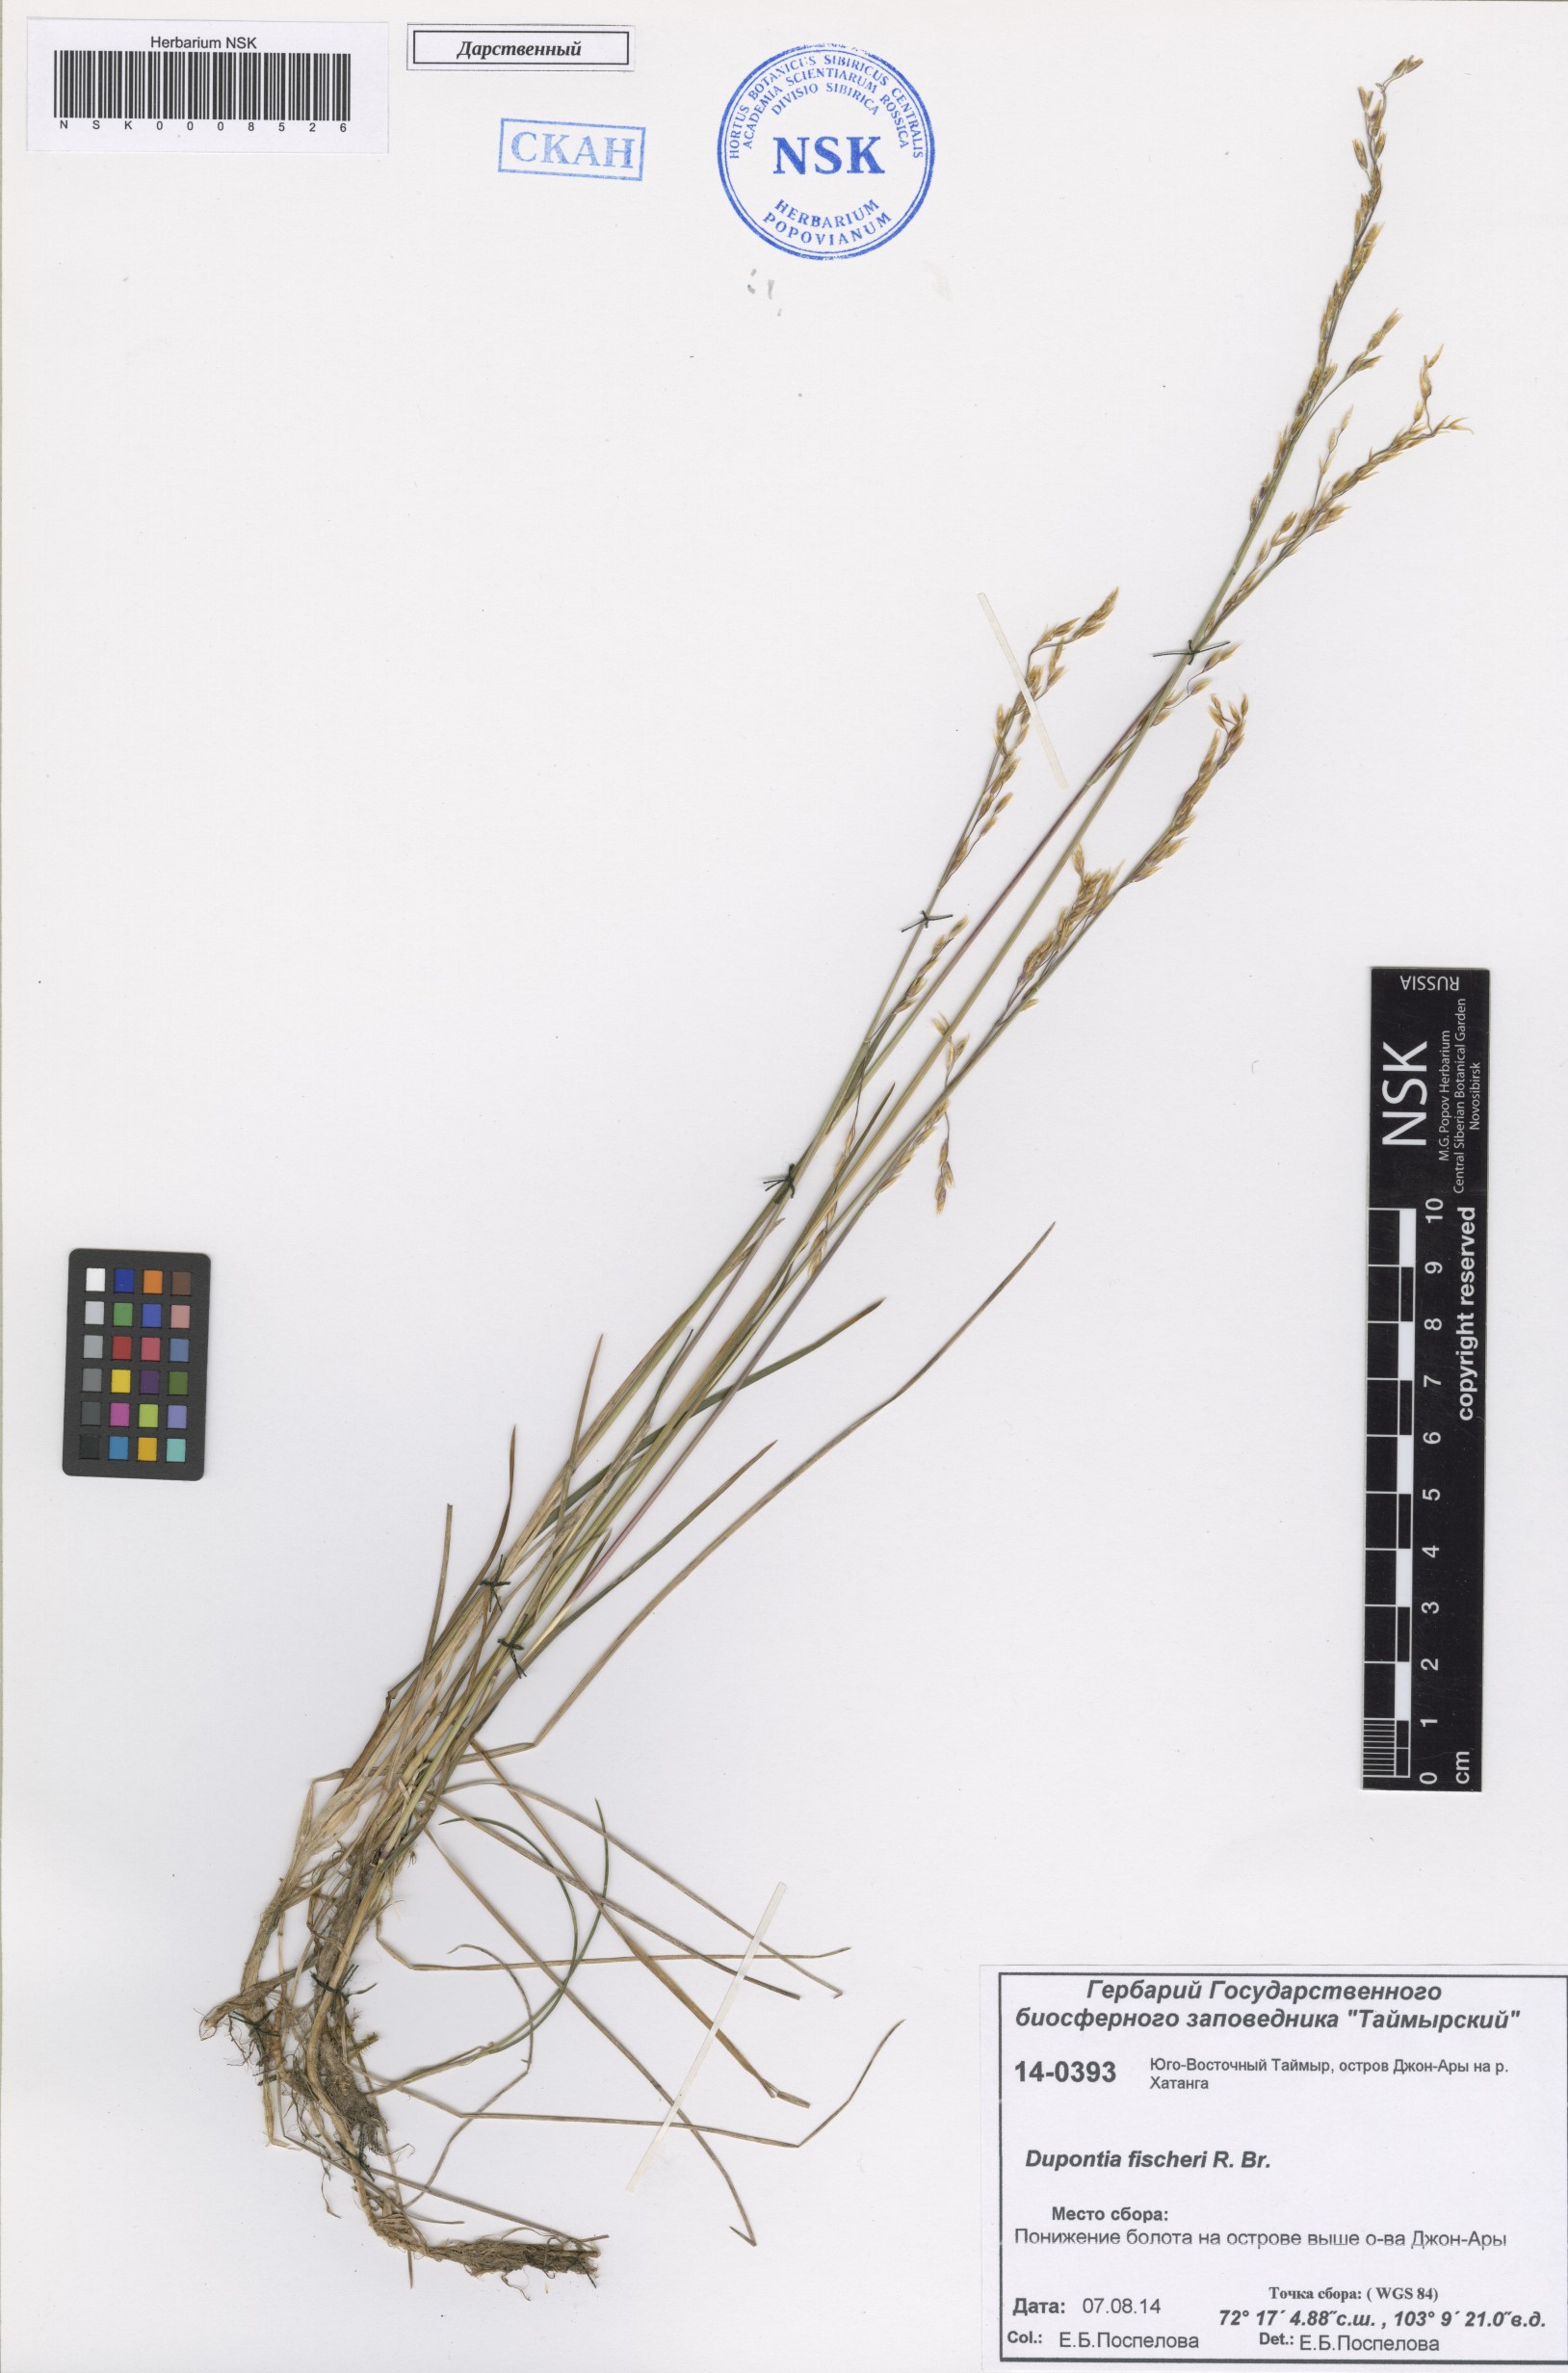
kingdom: Plantae
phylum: Tracheophyta
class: Liliopsida
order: Poales
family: Poaceae
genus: Dupontia
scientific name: Dupontia fisheri
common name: Tundra grass
